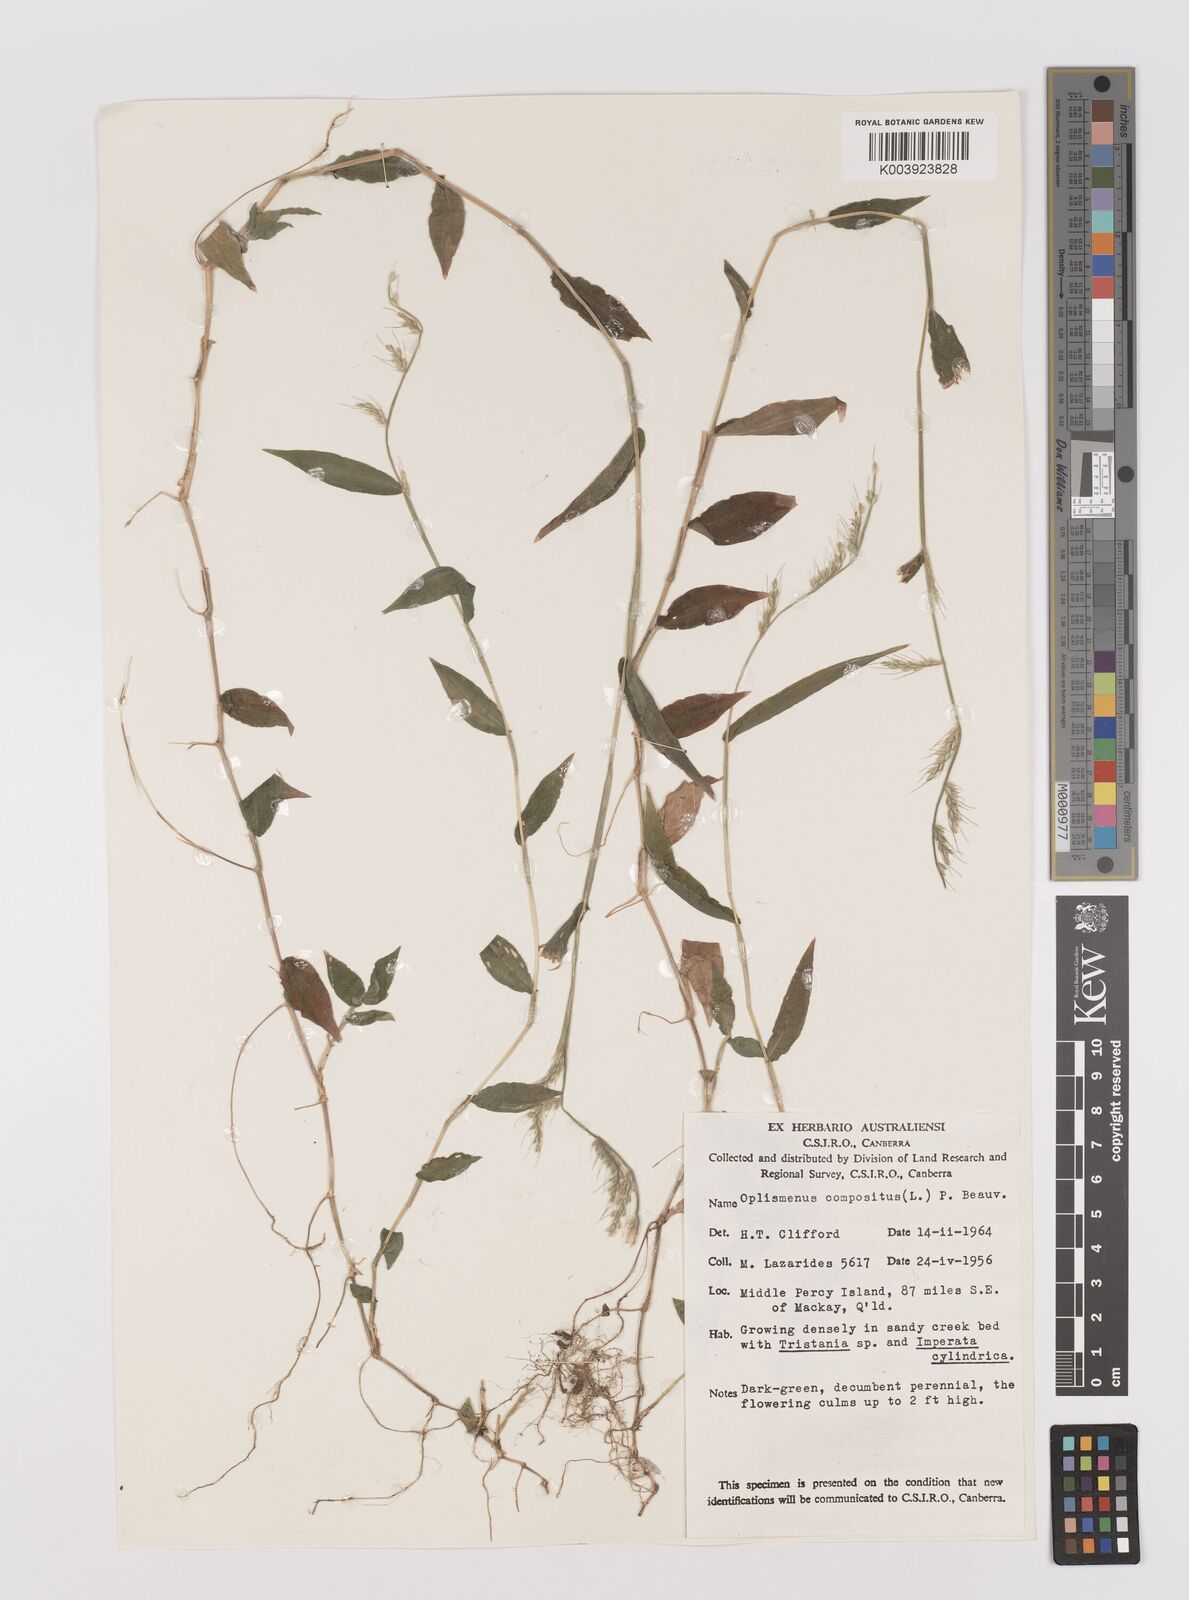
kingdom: Plantae
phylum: Tracheophyta
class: Liliopsida
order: Poales
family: Poaceae
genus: Oplismenus
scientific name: Oplismenus compositus
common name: Running mountain grass
